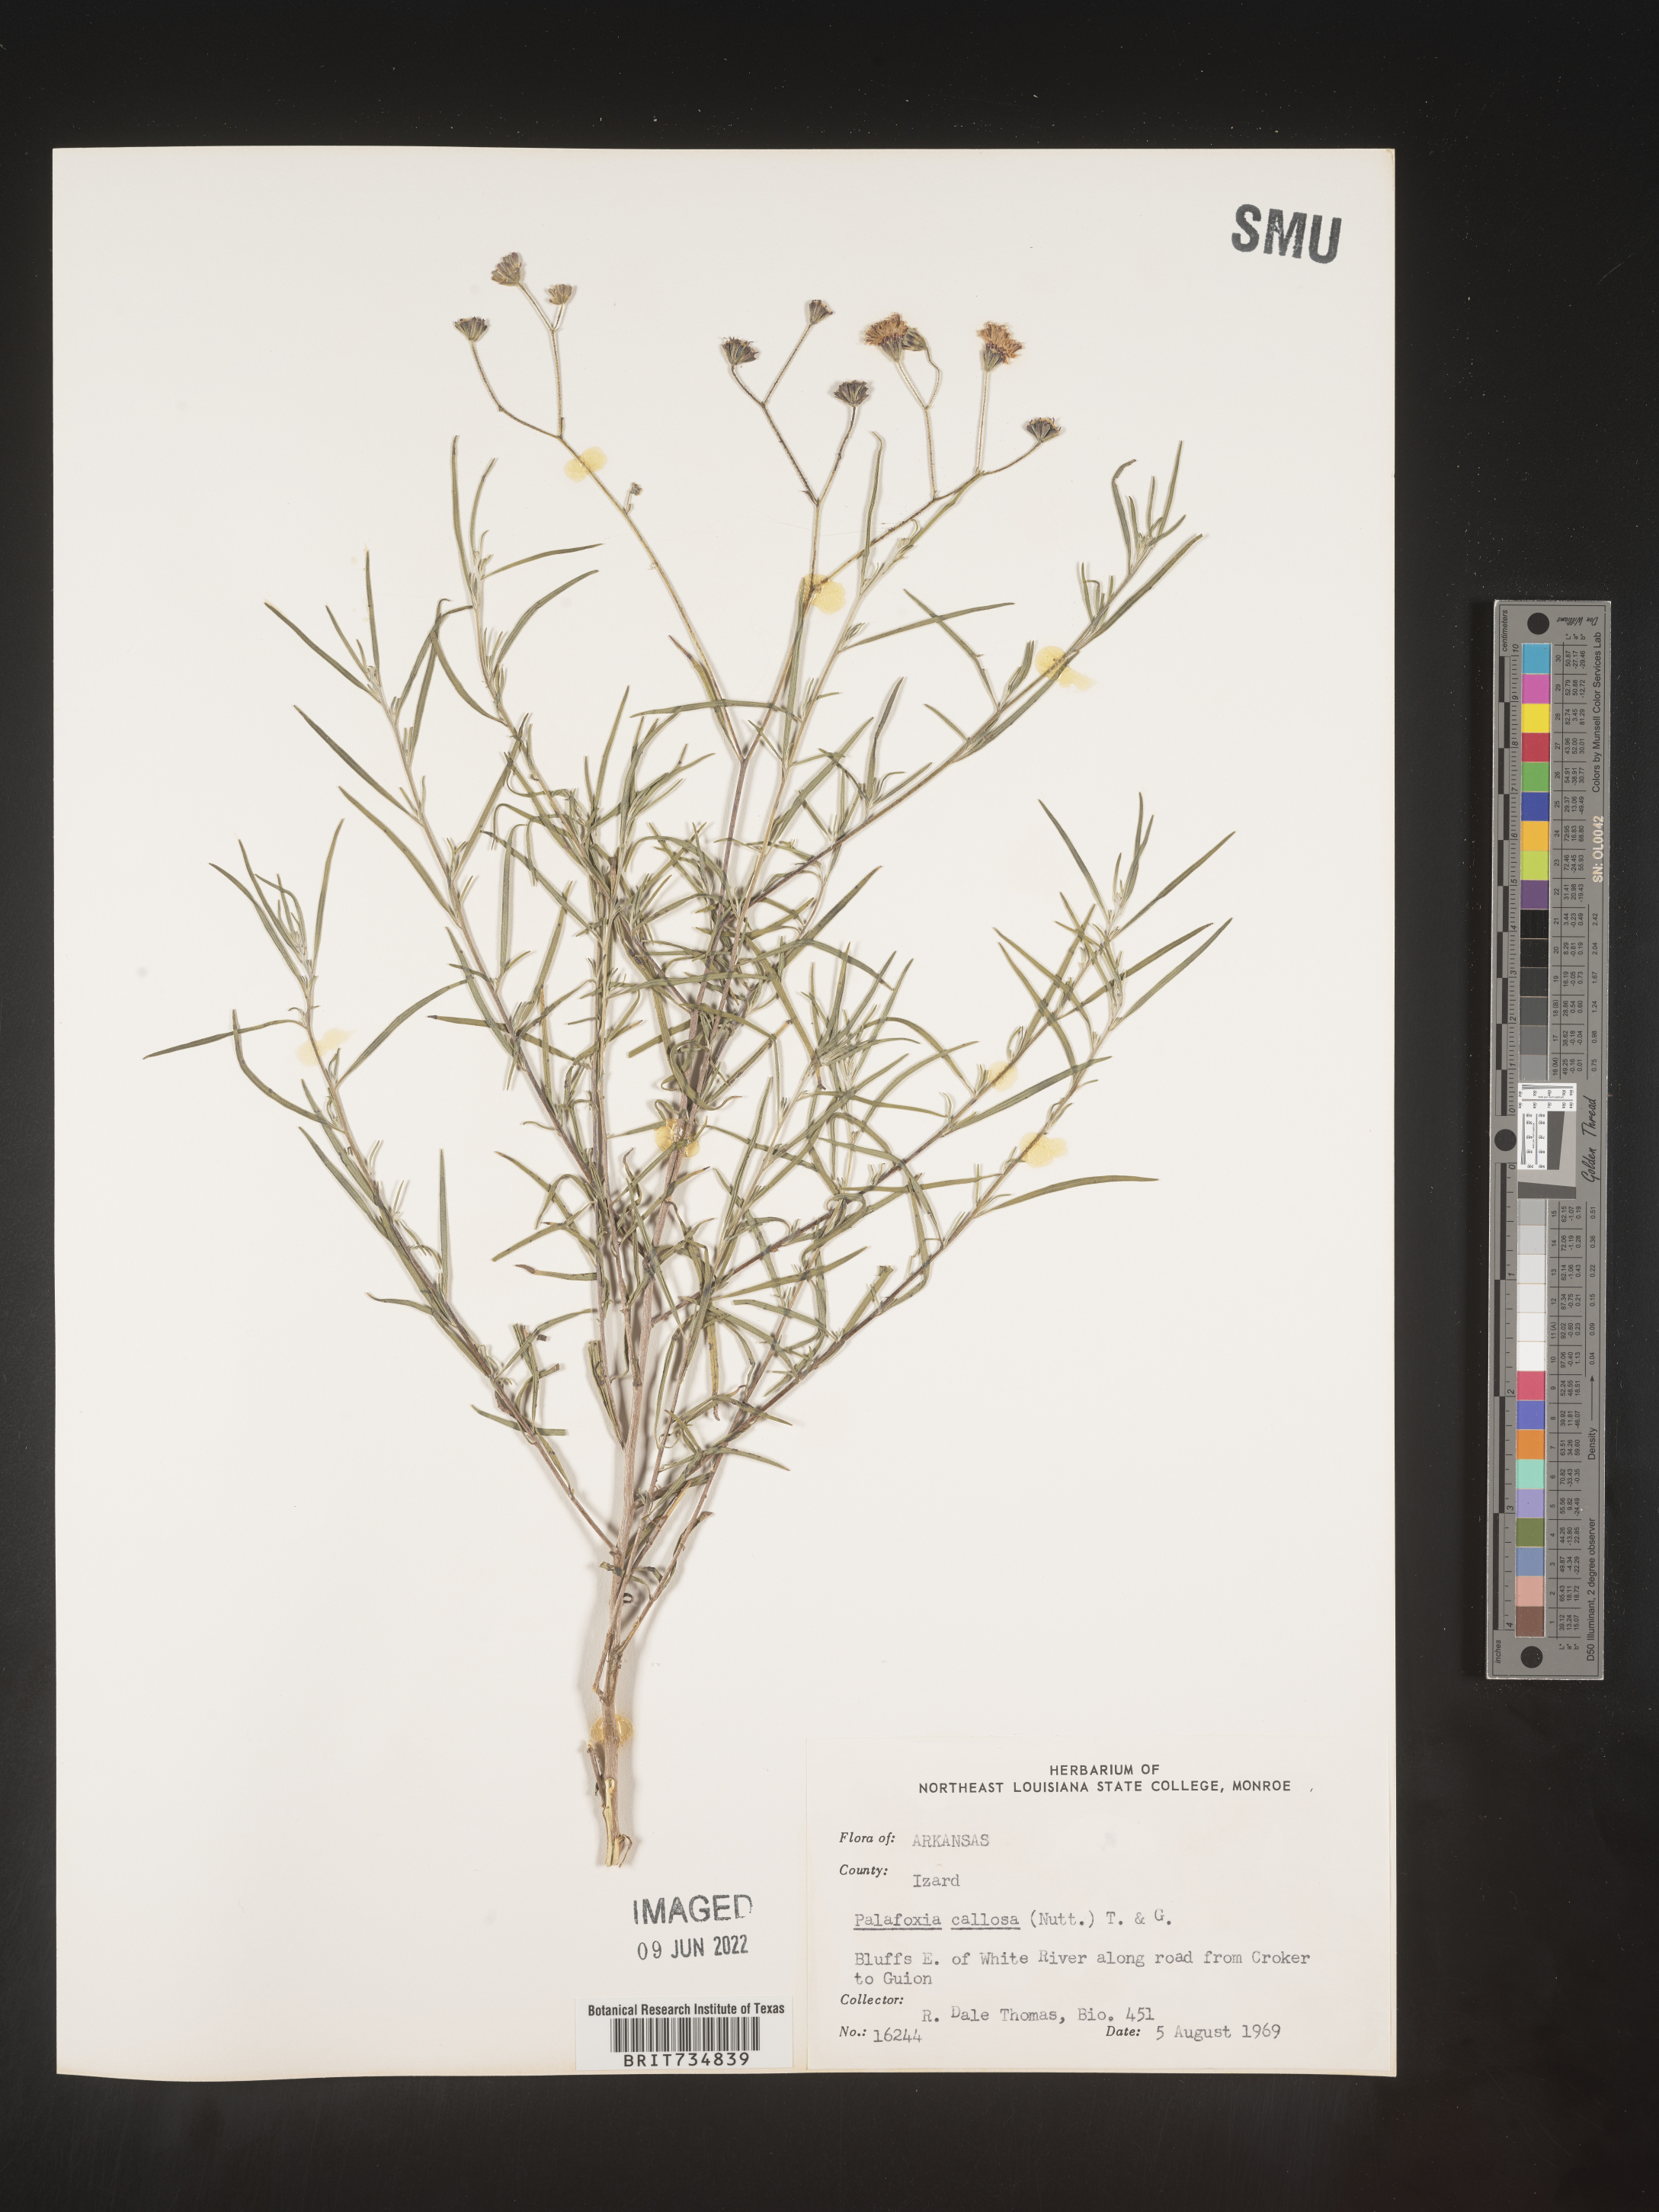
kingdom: Plantae
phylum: Tracheophyta
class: Magnoliopsida
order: Asterales
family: Asteraceae
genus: Palafoxia
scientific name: Palafoxia callosa
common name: Small palafox
